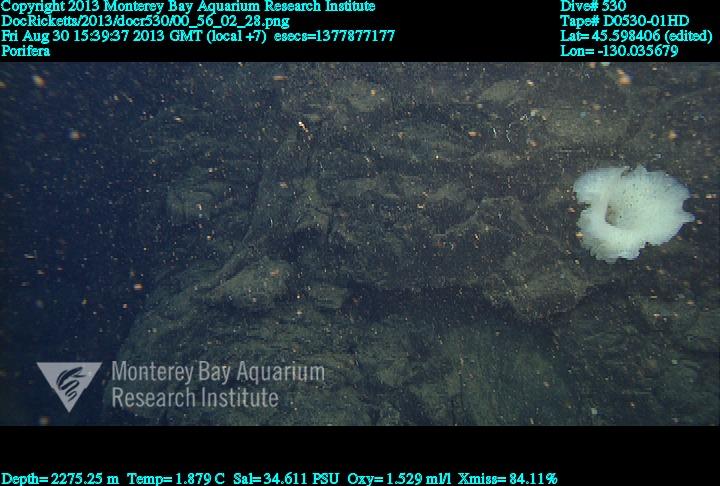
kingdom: Animalia
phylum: Porifera
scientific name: Porifera
